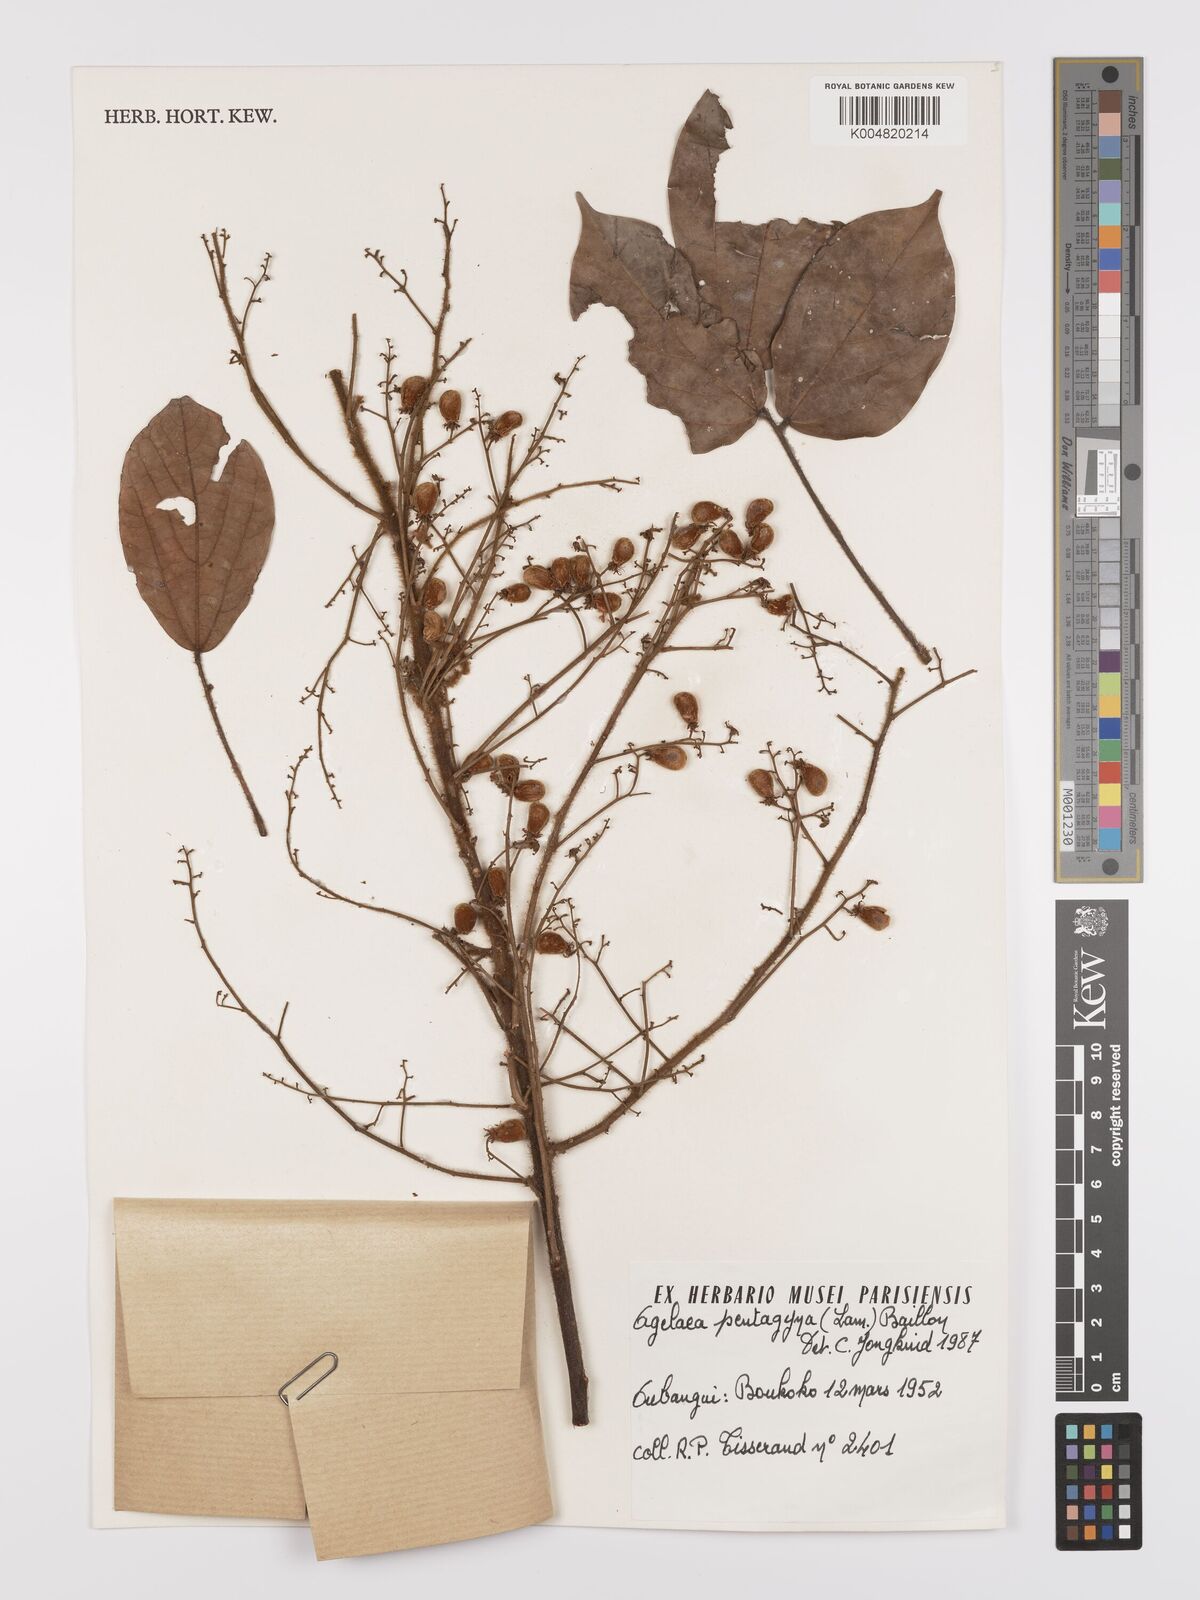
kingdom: Plantae
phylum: Tracheophyta
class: Magnoliopsida
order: Oxalidales
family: Connaraceae
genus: Agelaea
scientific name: Agelaea pentagyna
